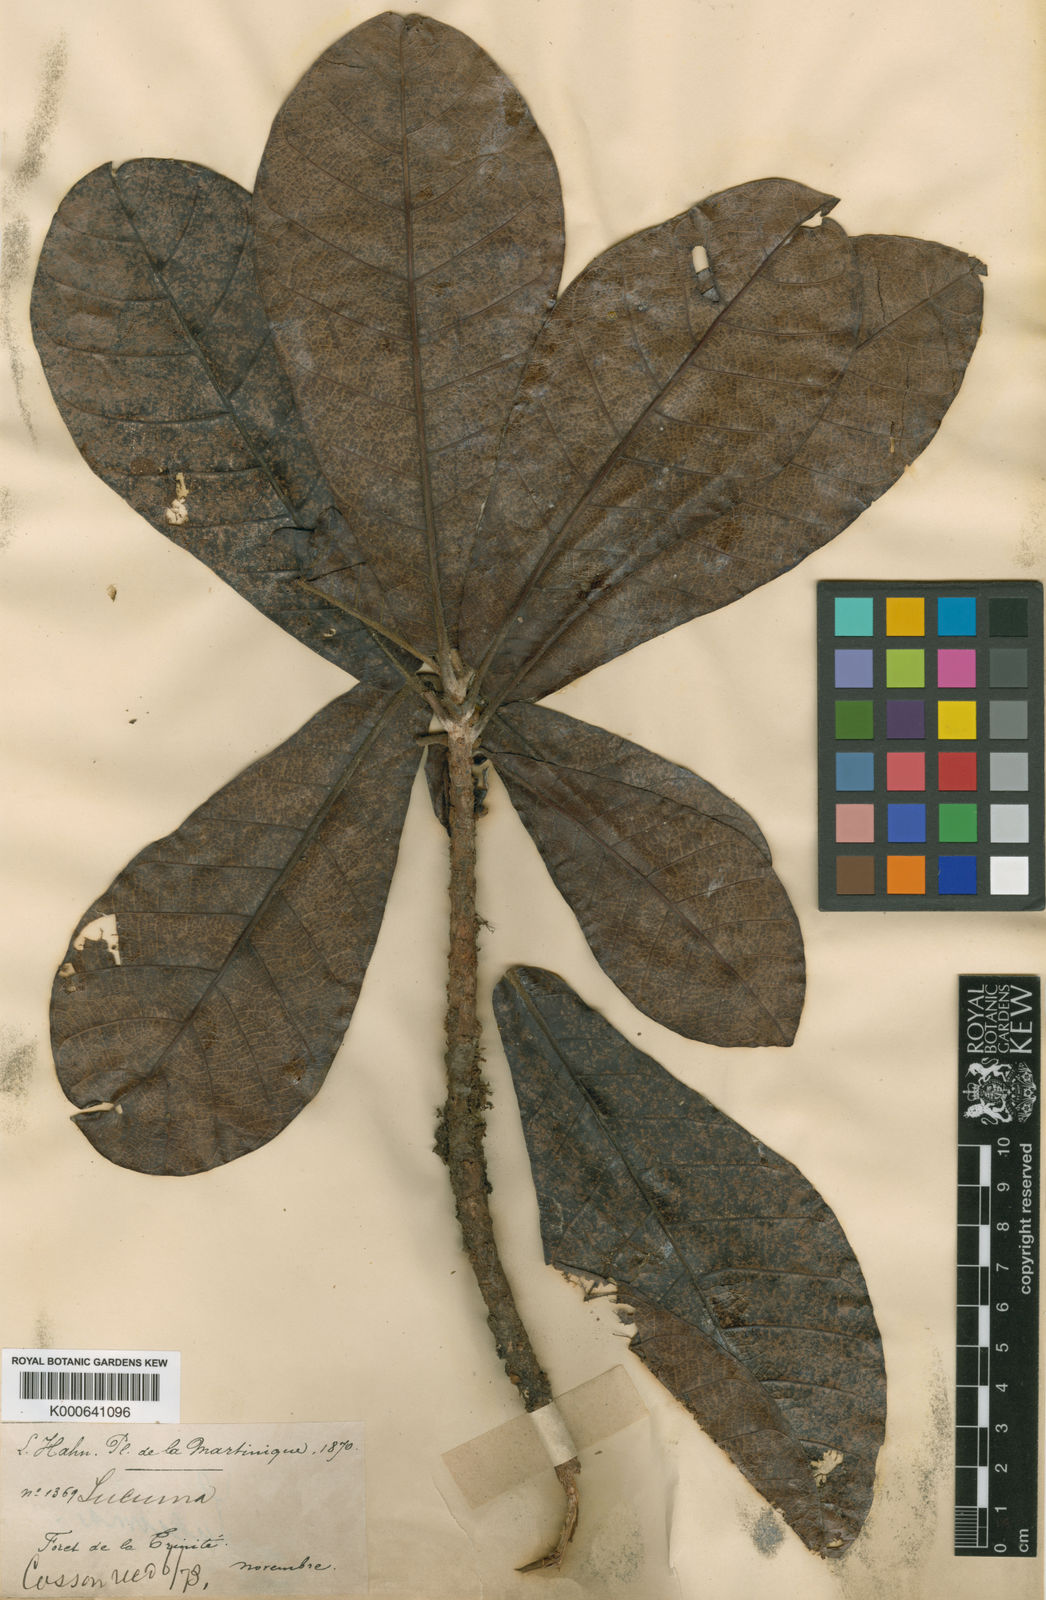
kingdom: Plantae
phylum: Tracheophyta
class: Magnoliopsida
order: Ericales
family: Sapotaceae
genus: Pouteria
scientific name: Pouteria semecarpifolia
